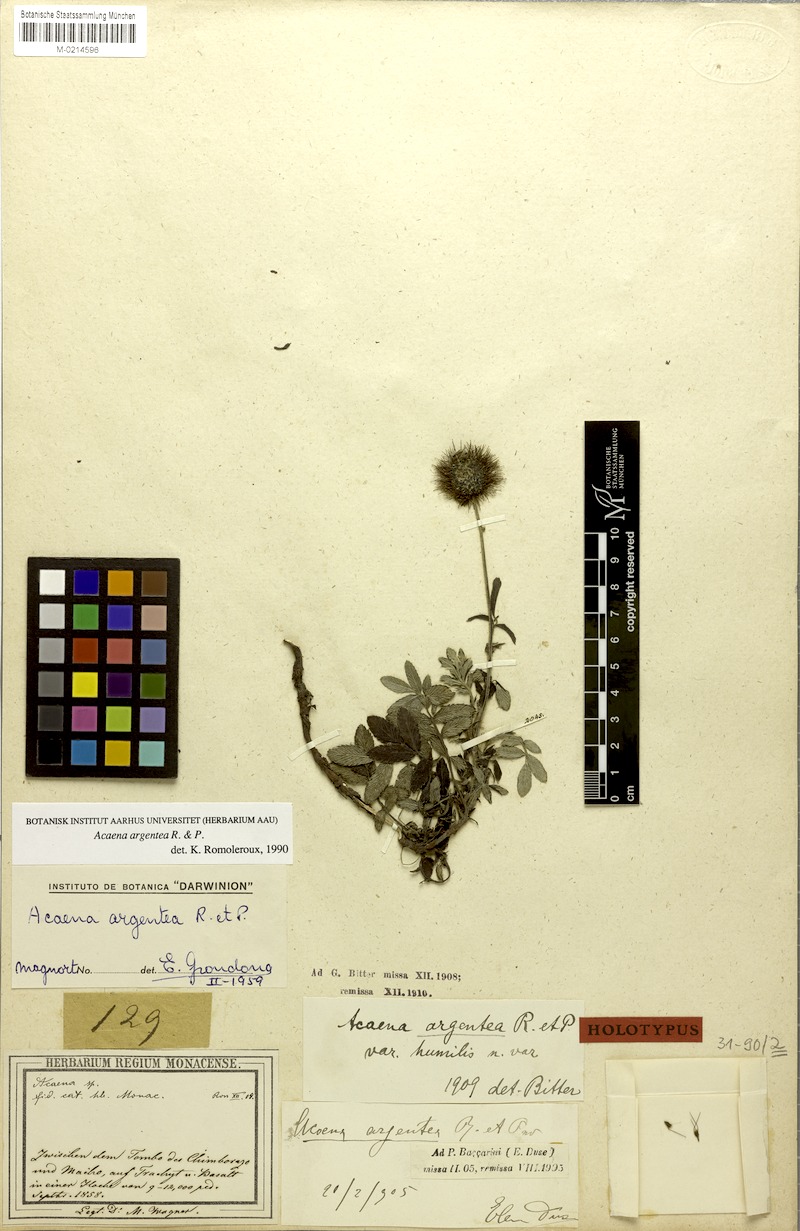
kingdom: Plantae
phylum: Tracheophyta
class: Magnoliopsida
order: Rosales
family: Rosaceae
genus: Acaena
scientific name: Acaena argentea
